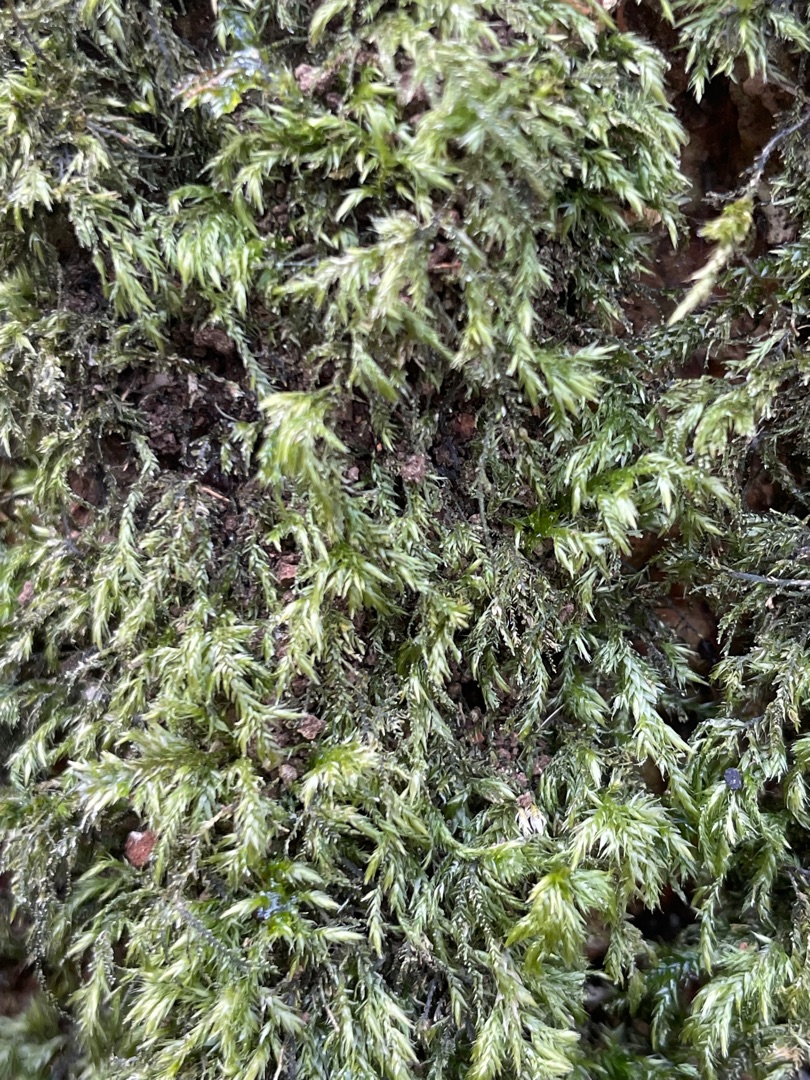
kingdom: Plantae
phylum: Bryophyta
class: Bryopsida
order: Hypnales
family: Lembophyllaceae
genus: Pseudisothecium
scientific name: Pseudisothecium myosuroides
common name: Slank stammemos
